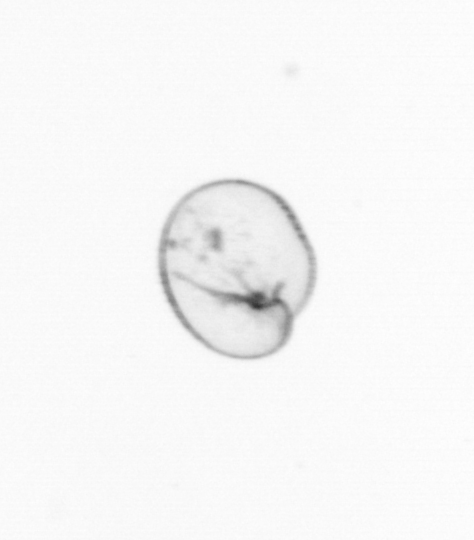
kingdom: Chromista
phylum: Myzozoa
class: Dinophyceae
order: Noctilucales
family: Noctilucaceae
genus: Noctiluca
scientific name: Noctiluca scintillans
